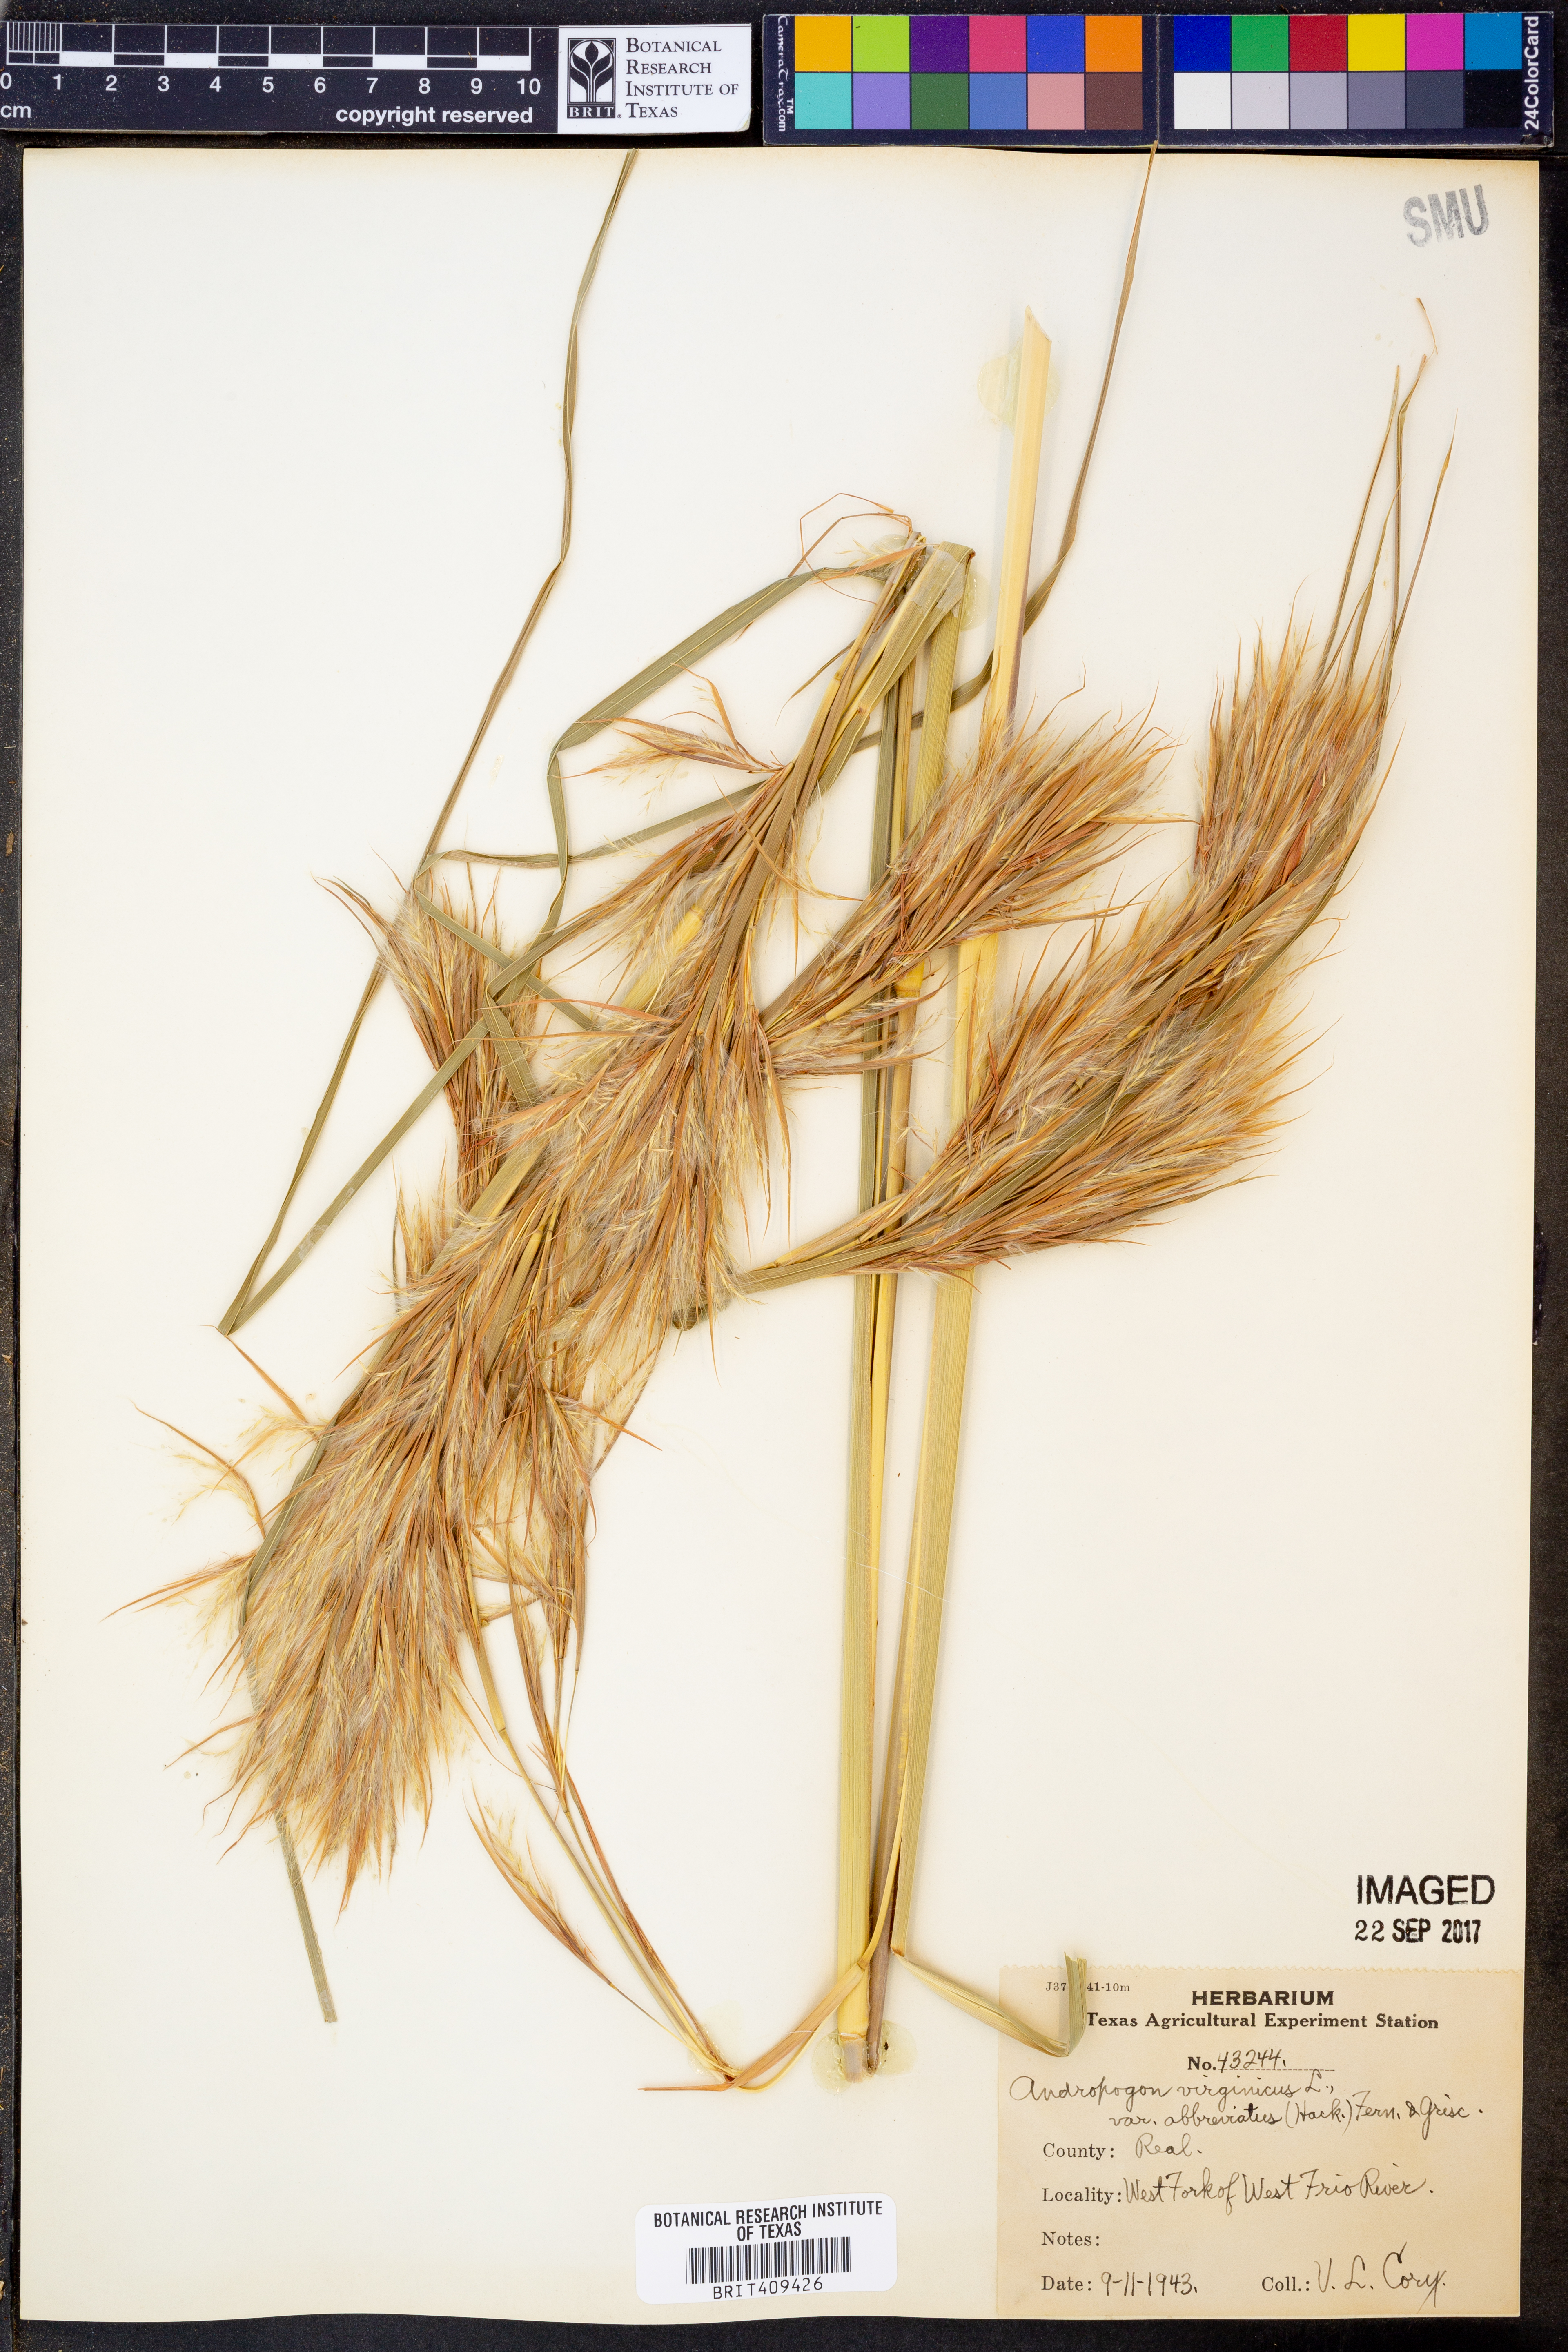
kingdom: Plantae
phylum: Tracheophyta
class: Liliopsida
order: Poales
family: Poaceae
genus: Andropogon
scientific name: Andropogon glomeratus
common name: Bushy beard grass
